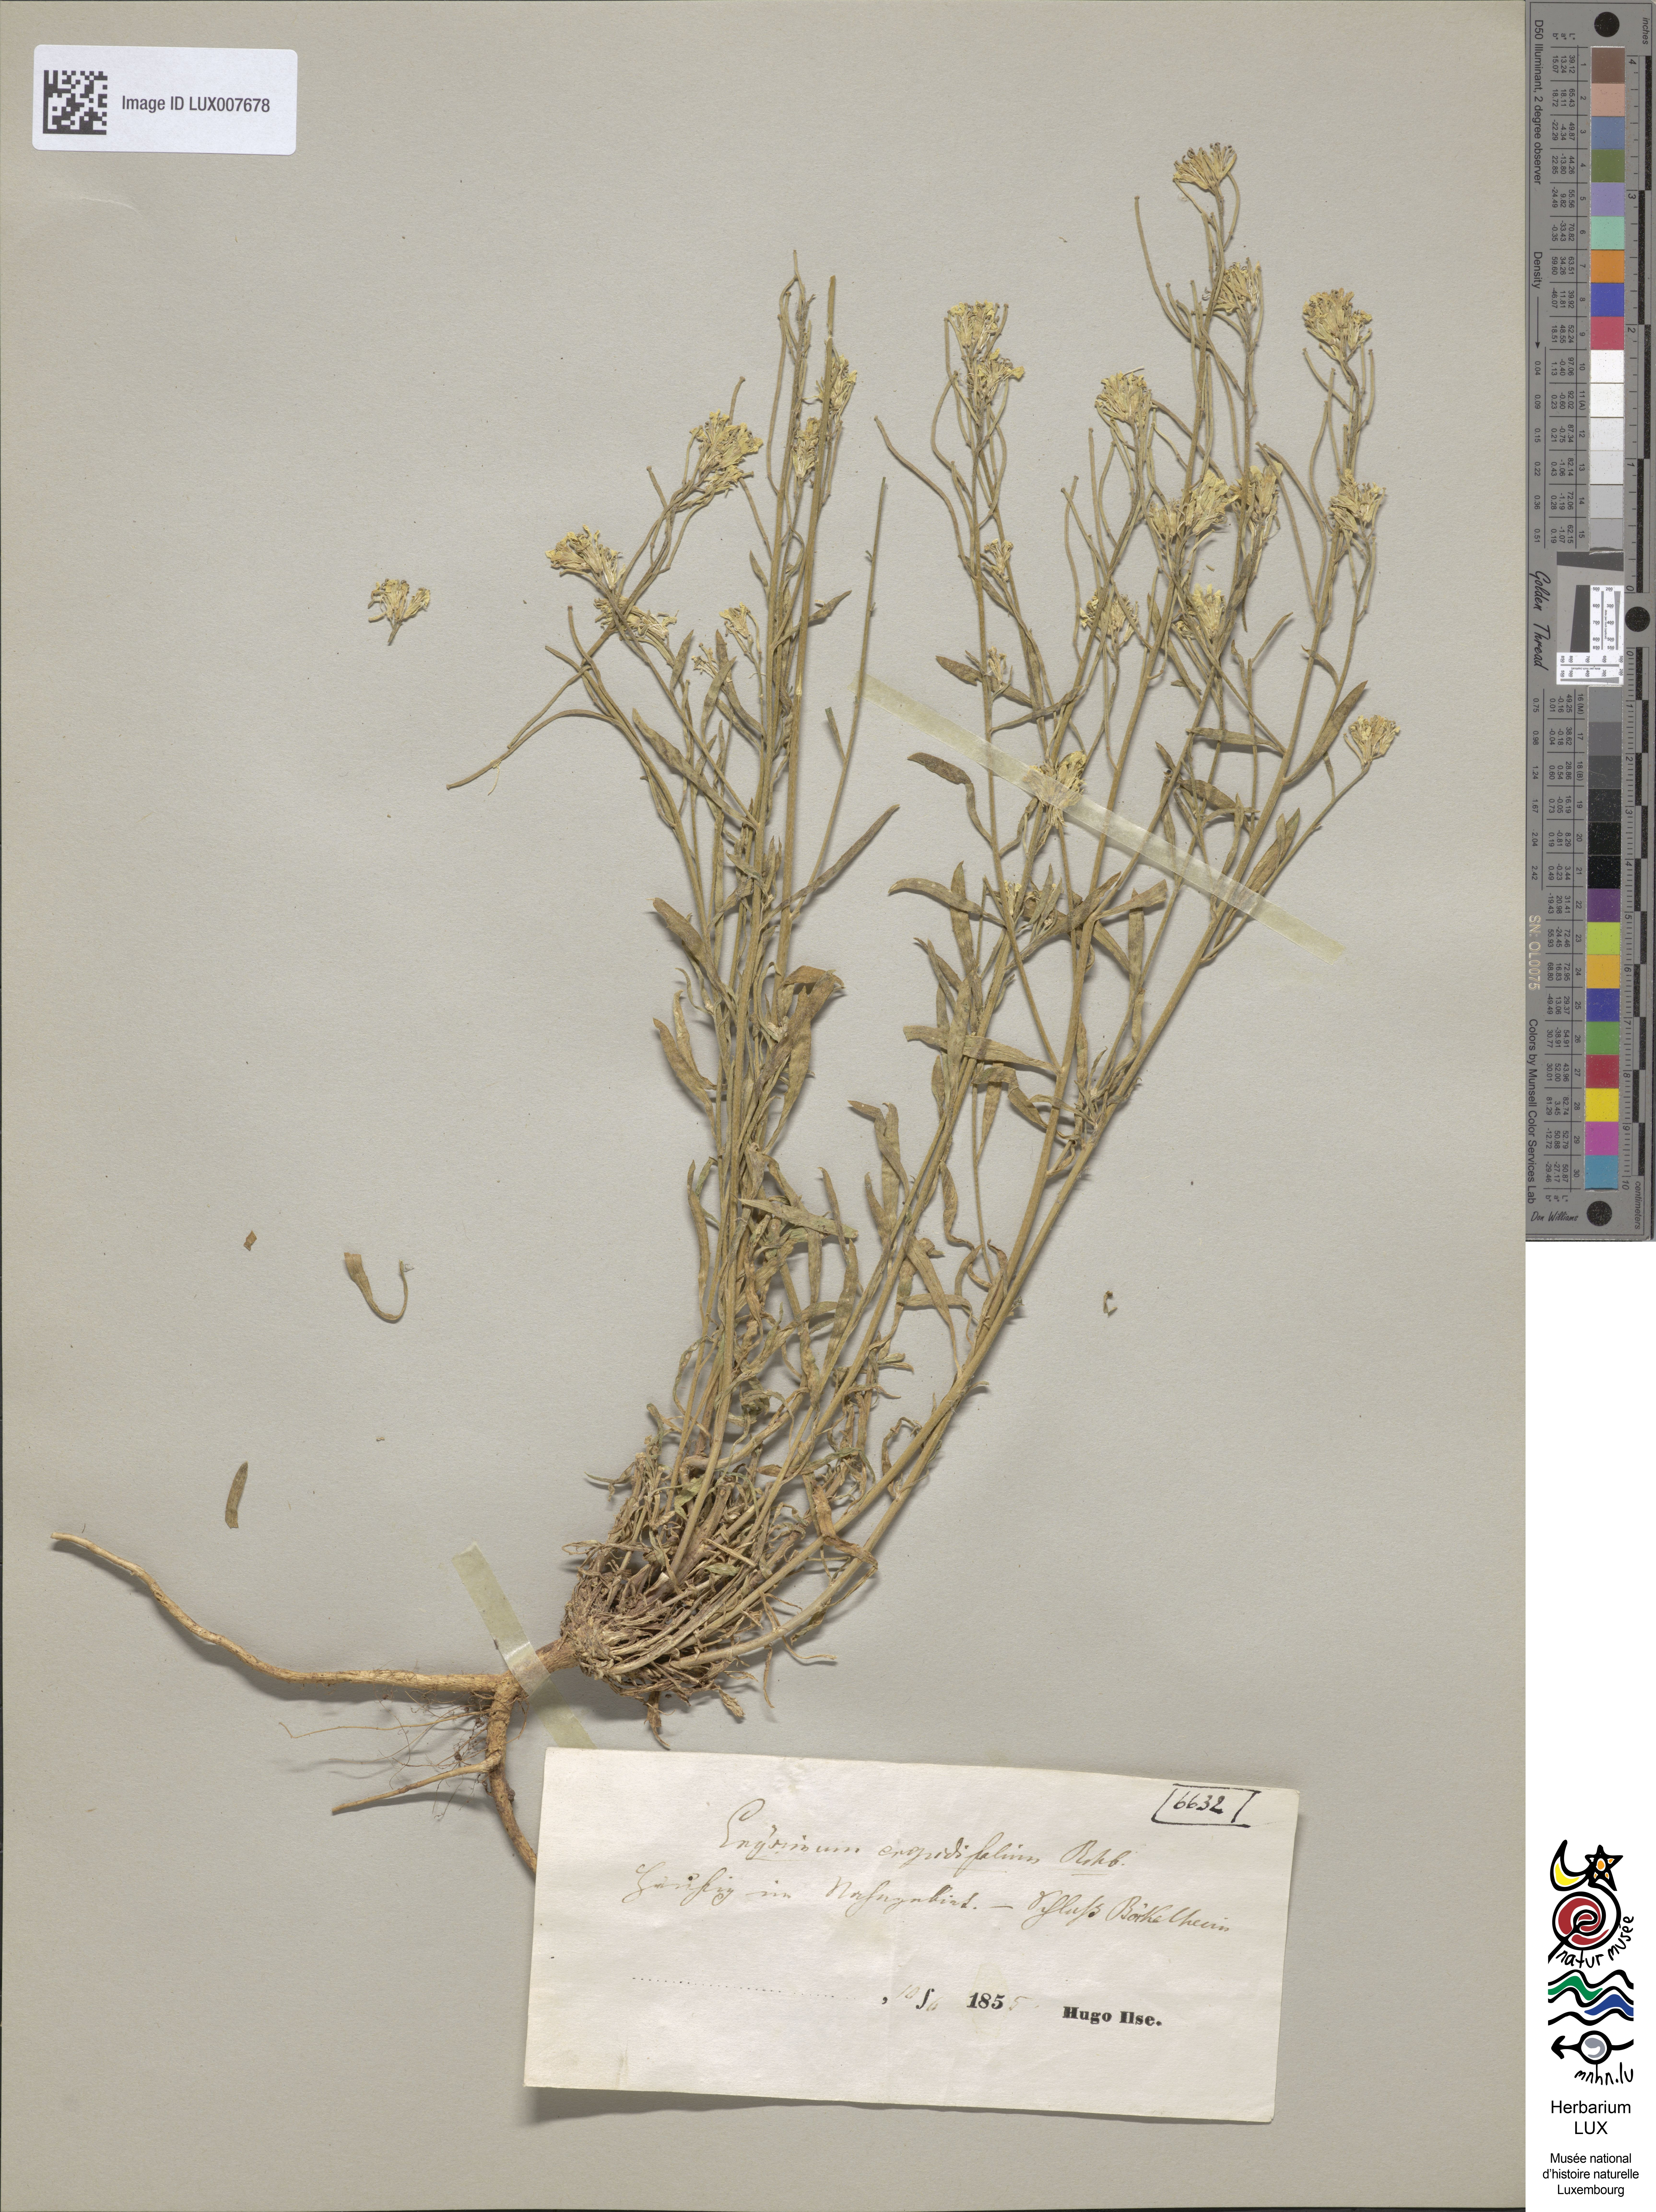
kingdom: Plantae
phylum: Tracheophyta
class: Magnoliopsida
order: Brassicales
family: Brassicaceae
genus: Erysimum
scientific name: Erysimum crepidifolium
